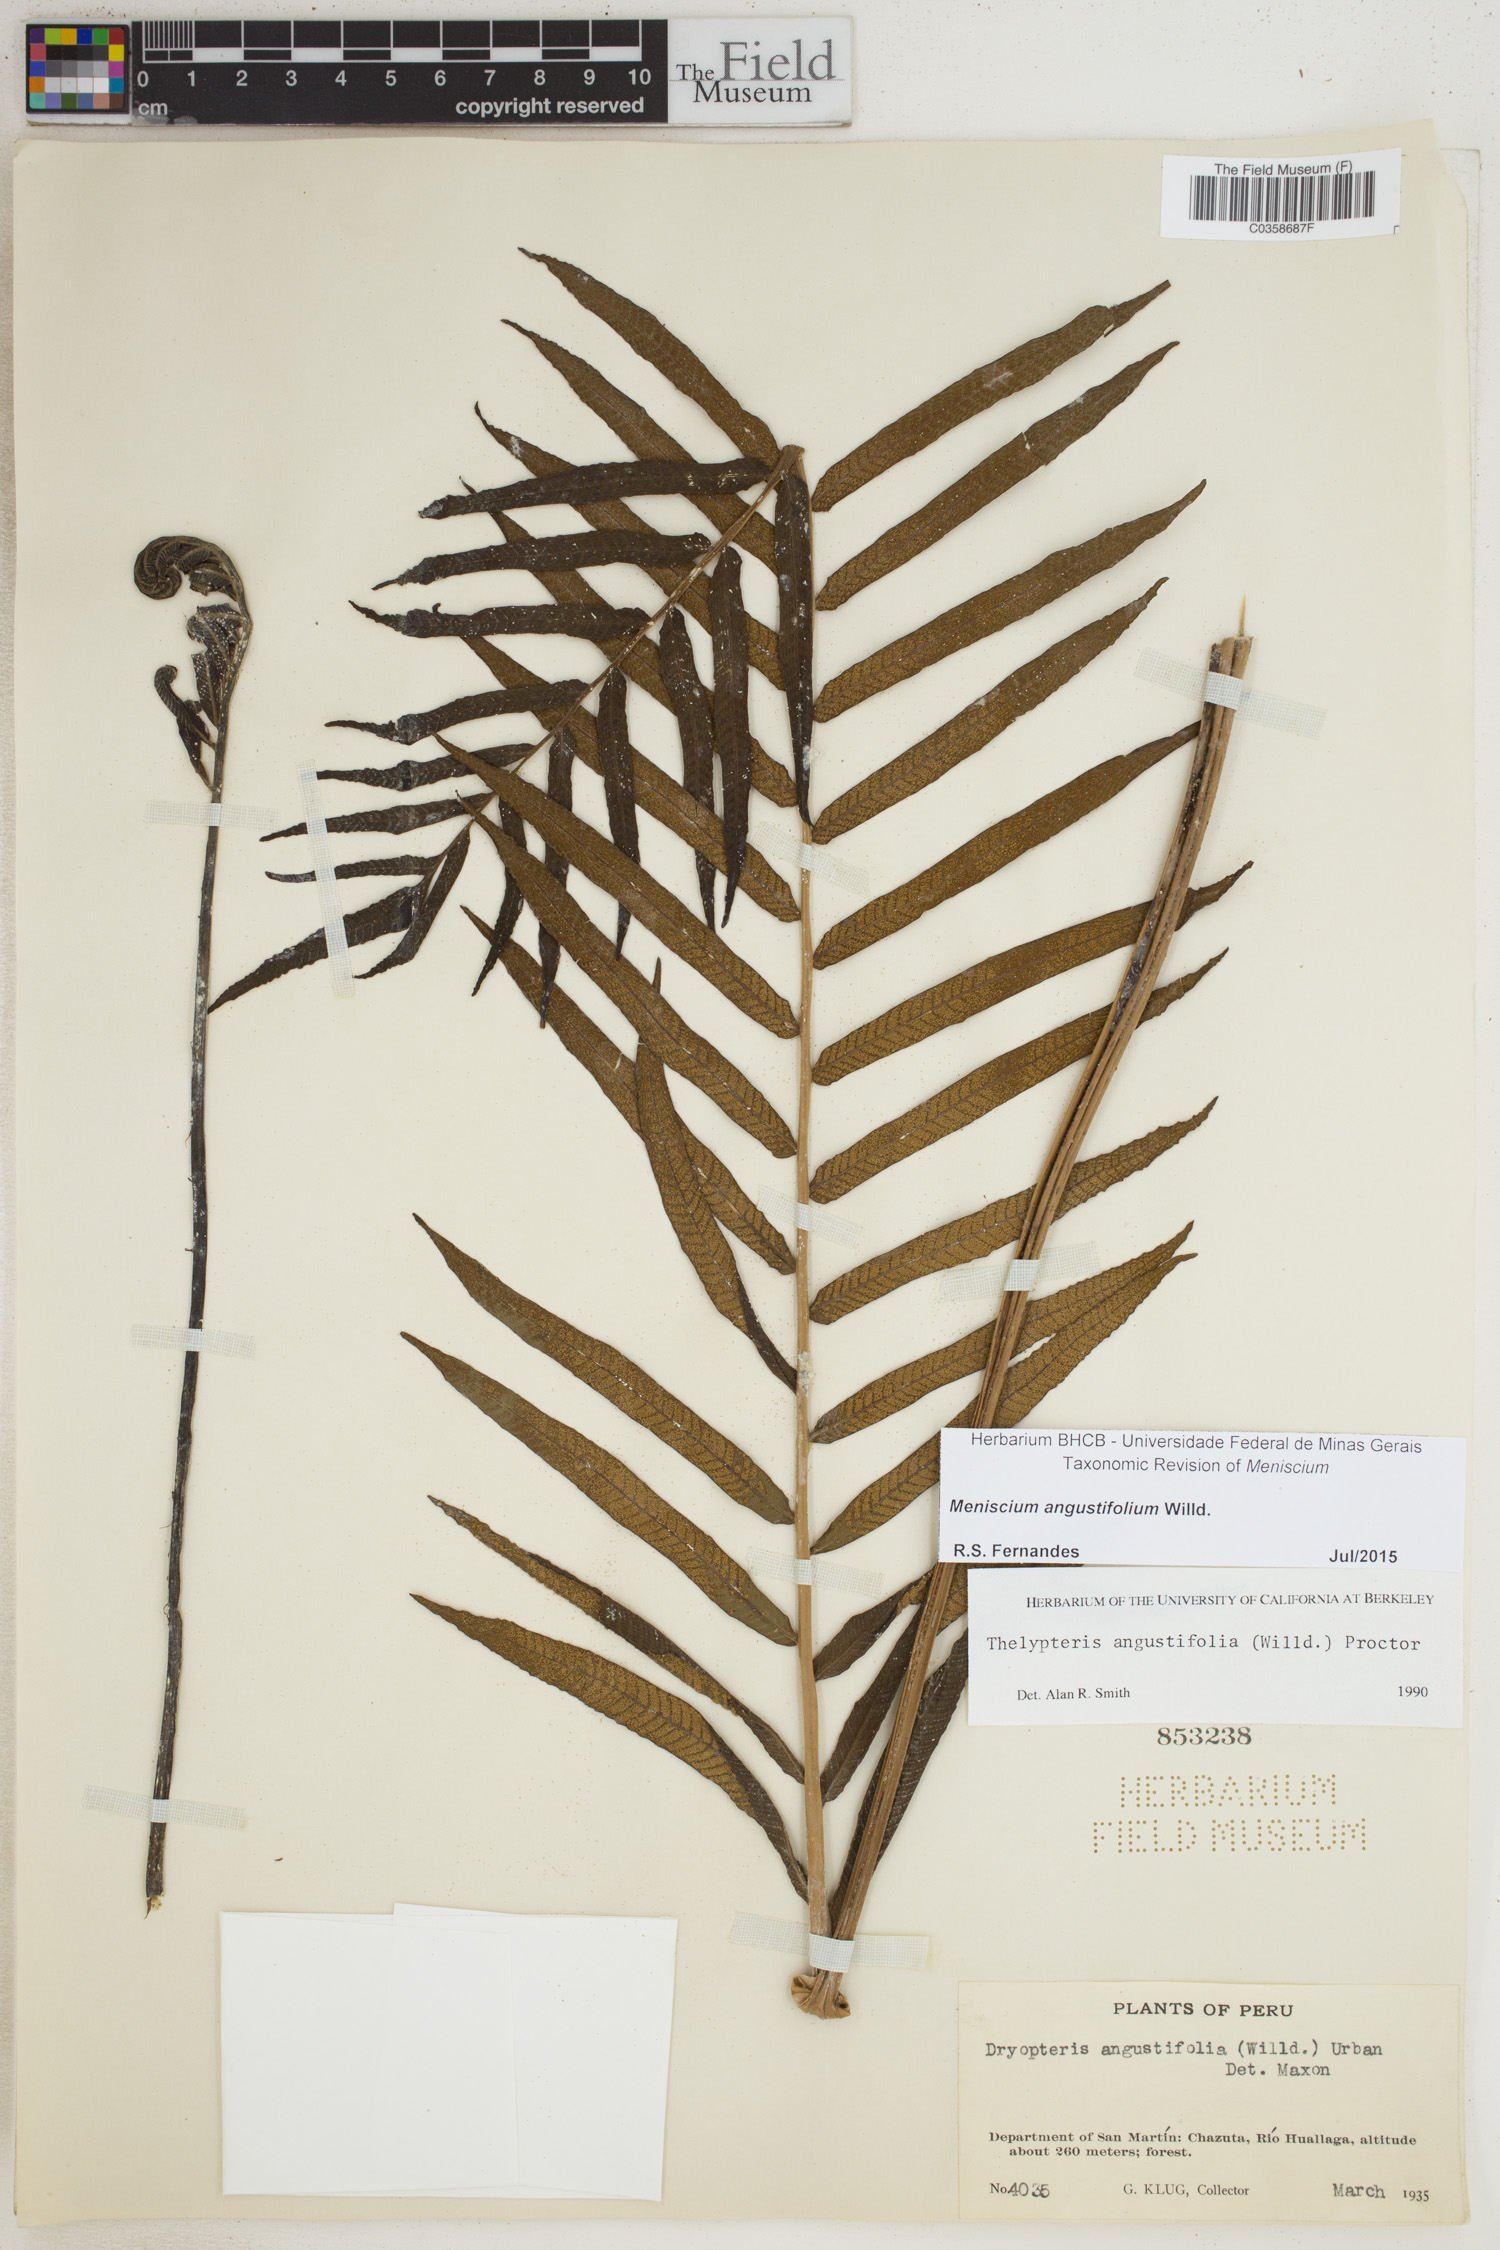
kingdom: Plantae
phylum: Tracheophyta
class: Polypodiopsida
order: Polypodiales
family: Thelypteridaceae
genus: Meniscium
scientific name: Meniscium angustifolium
